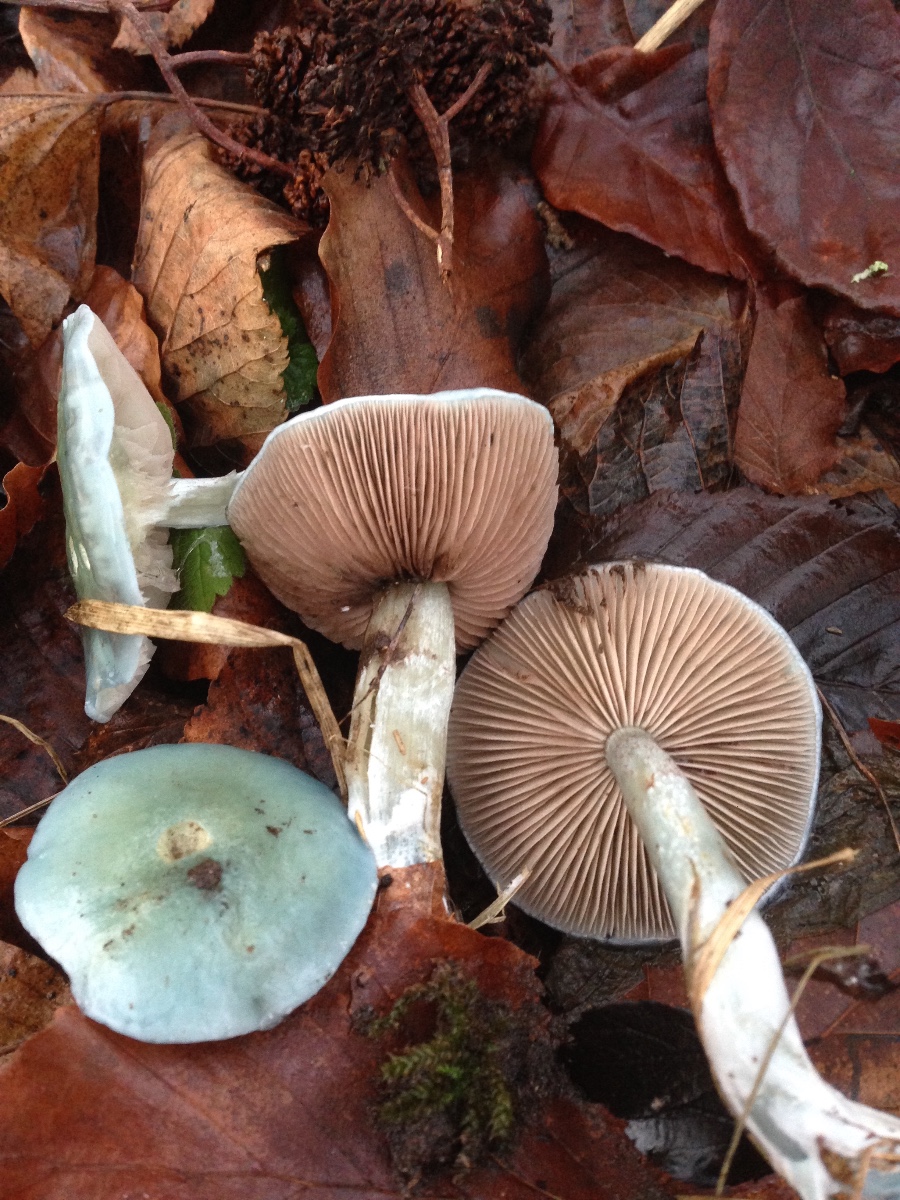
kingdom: Fungi
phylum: Basidiomycota
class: Agaricomycetes
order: Agaricales
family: Strophariaceae
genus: Stropharia
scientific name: Stropharia cyanea
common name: blågrøn bredblad
